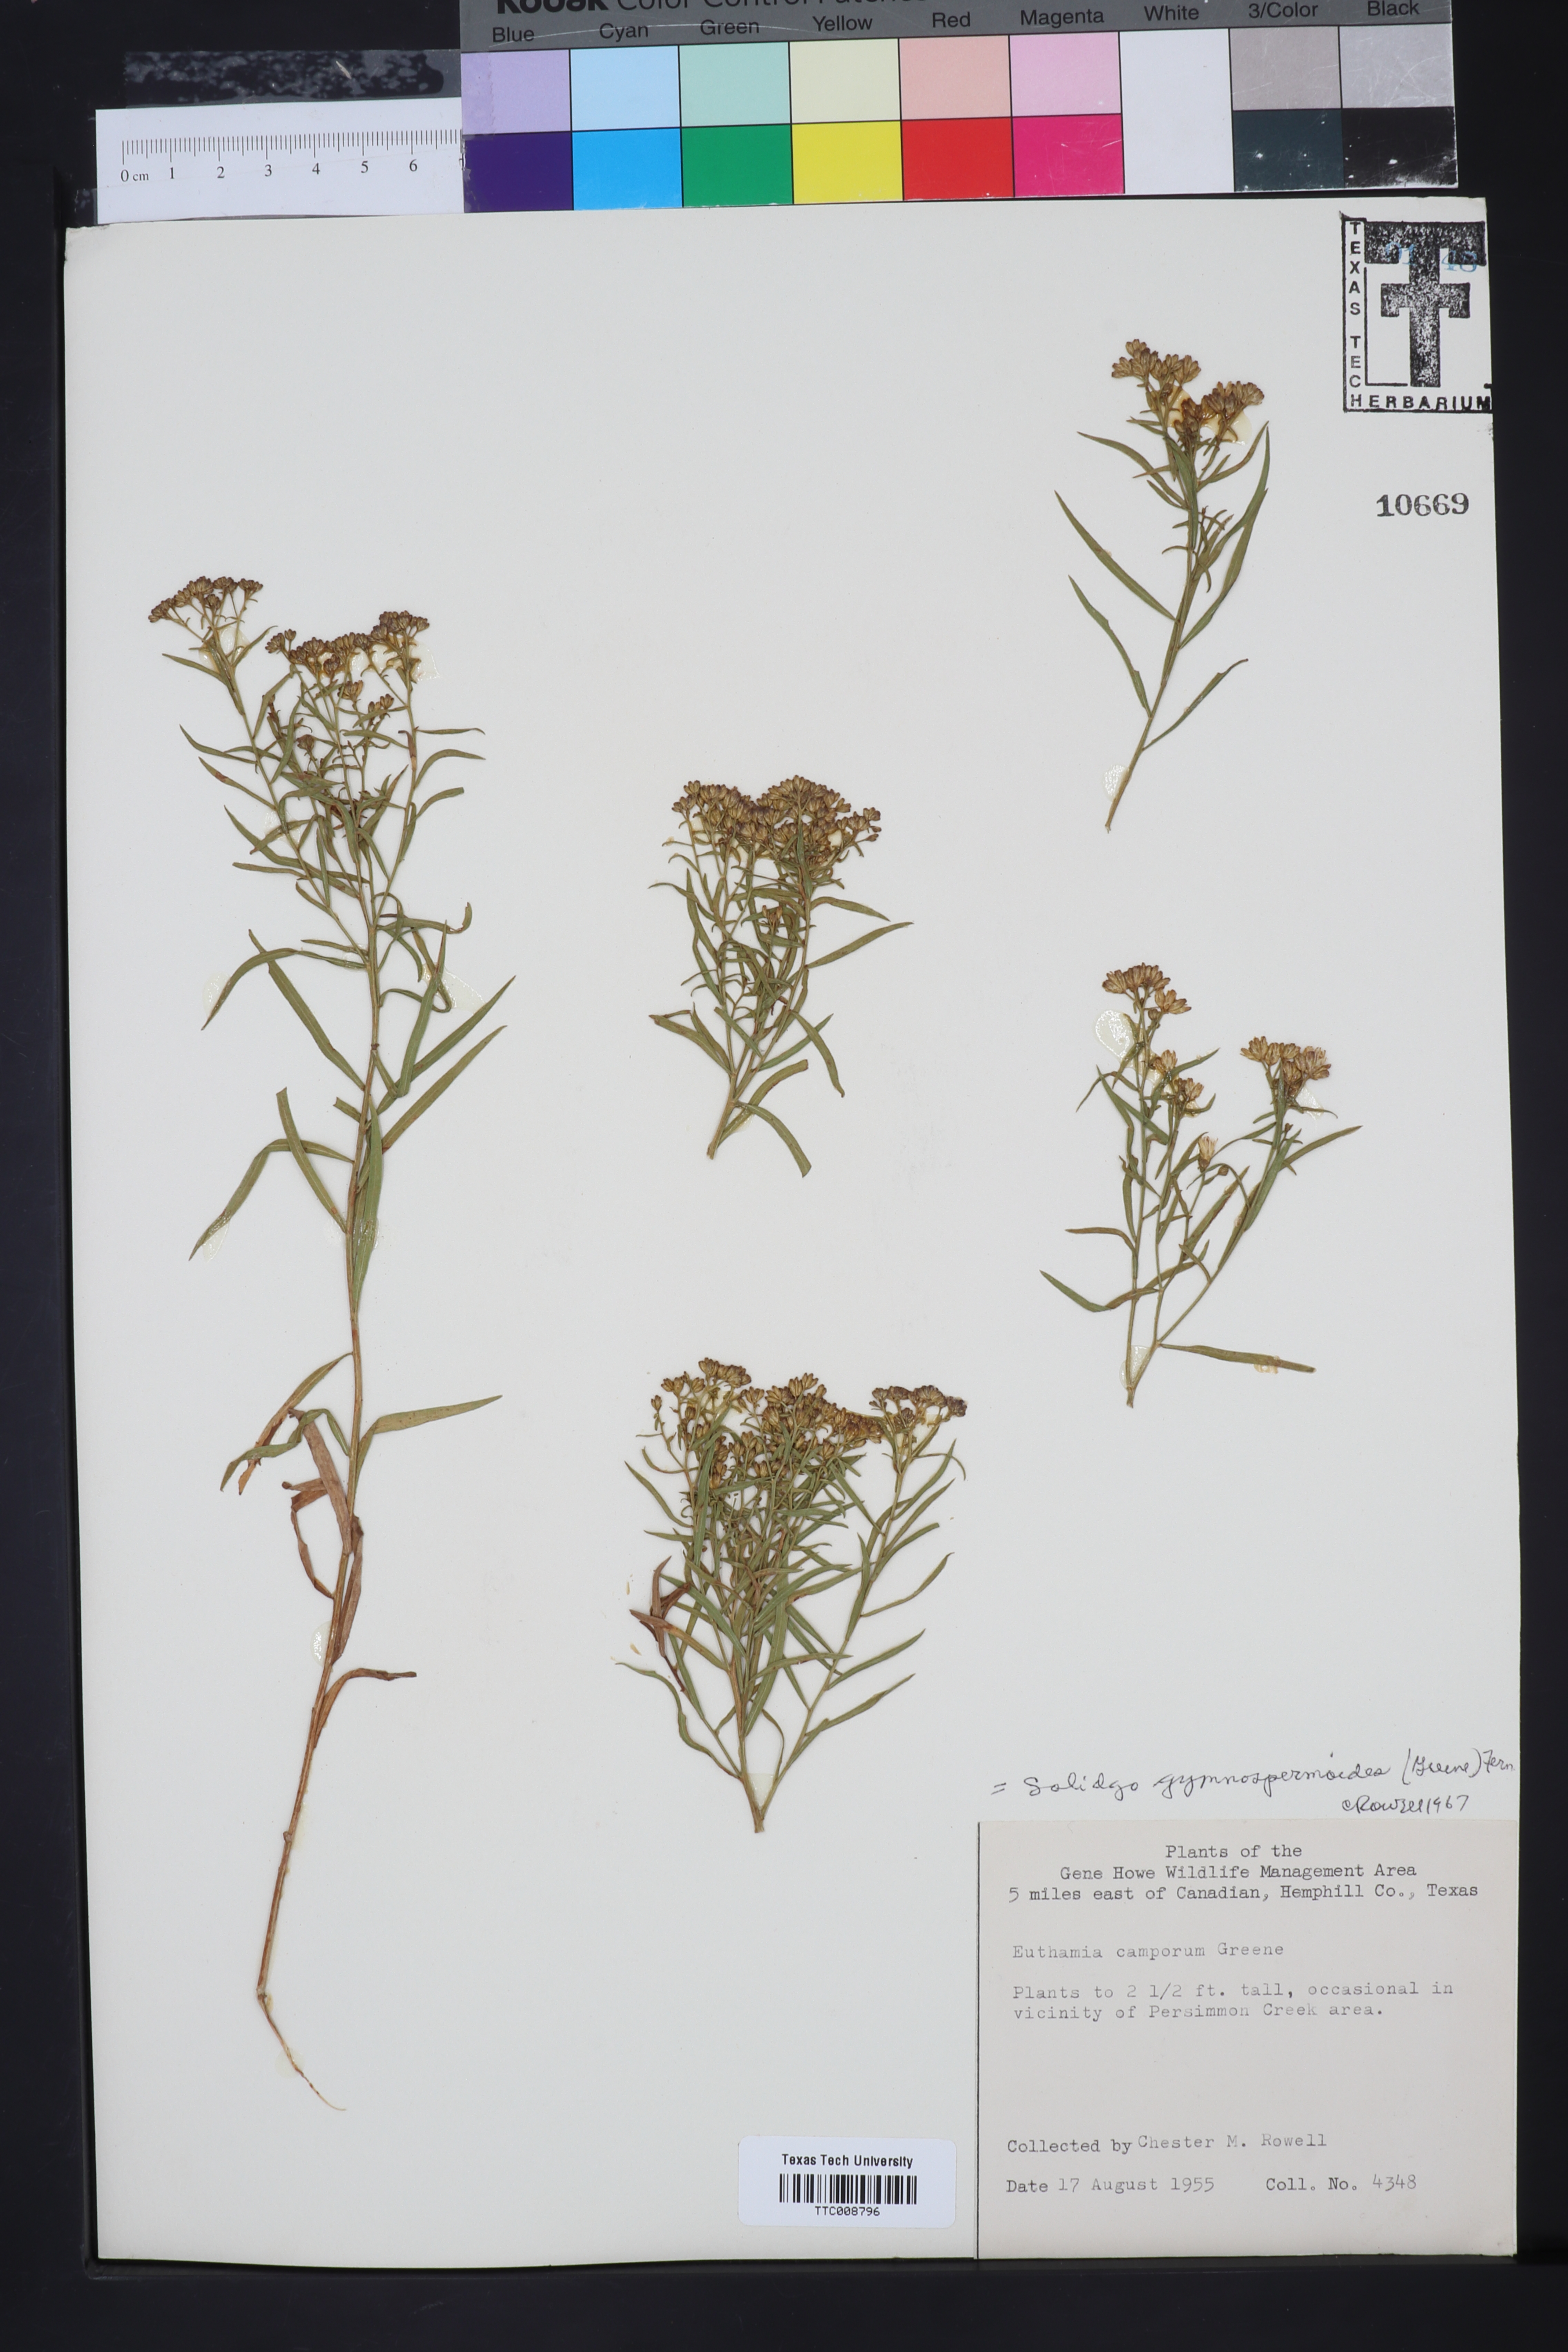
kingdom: Plantae
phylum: Tracheophyta
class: Magnoliopsida
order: Asterales
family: Asteraceae
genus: Euthamia
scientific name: Euthamia gymnospermoides
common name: Great plains goldentop
